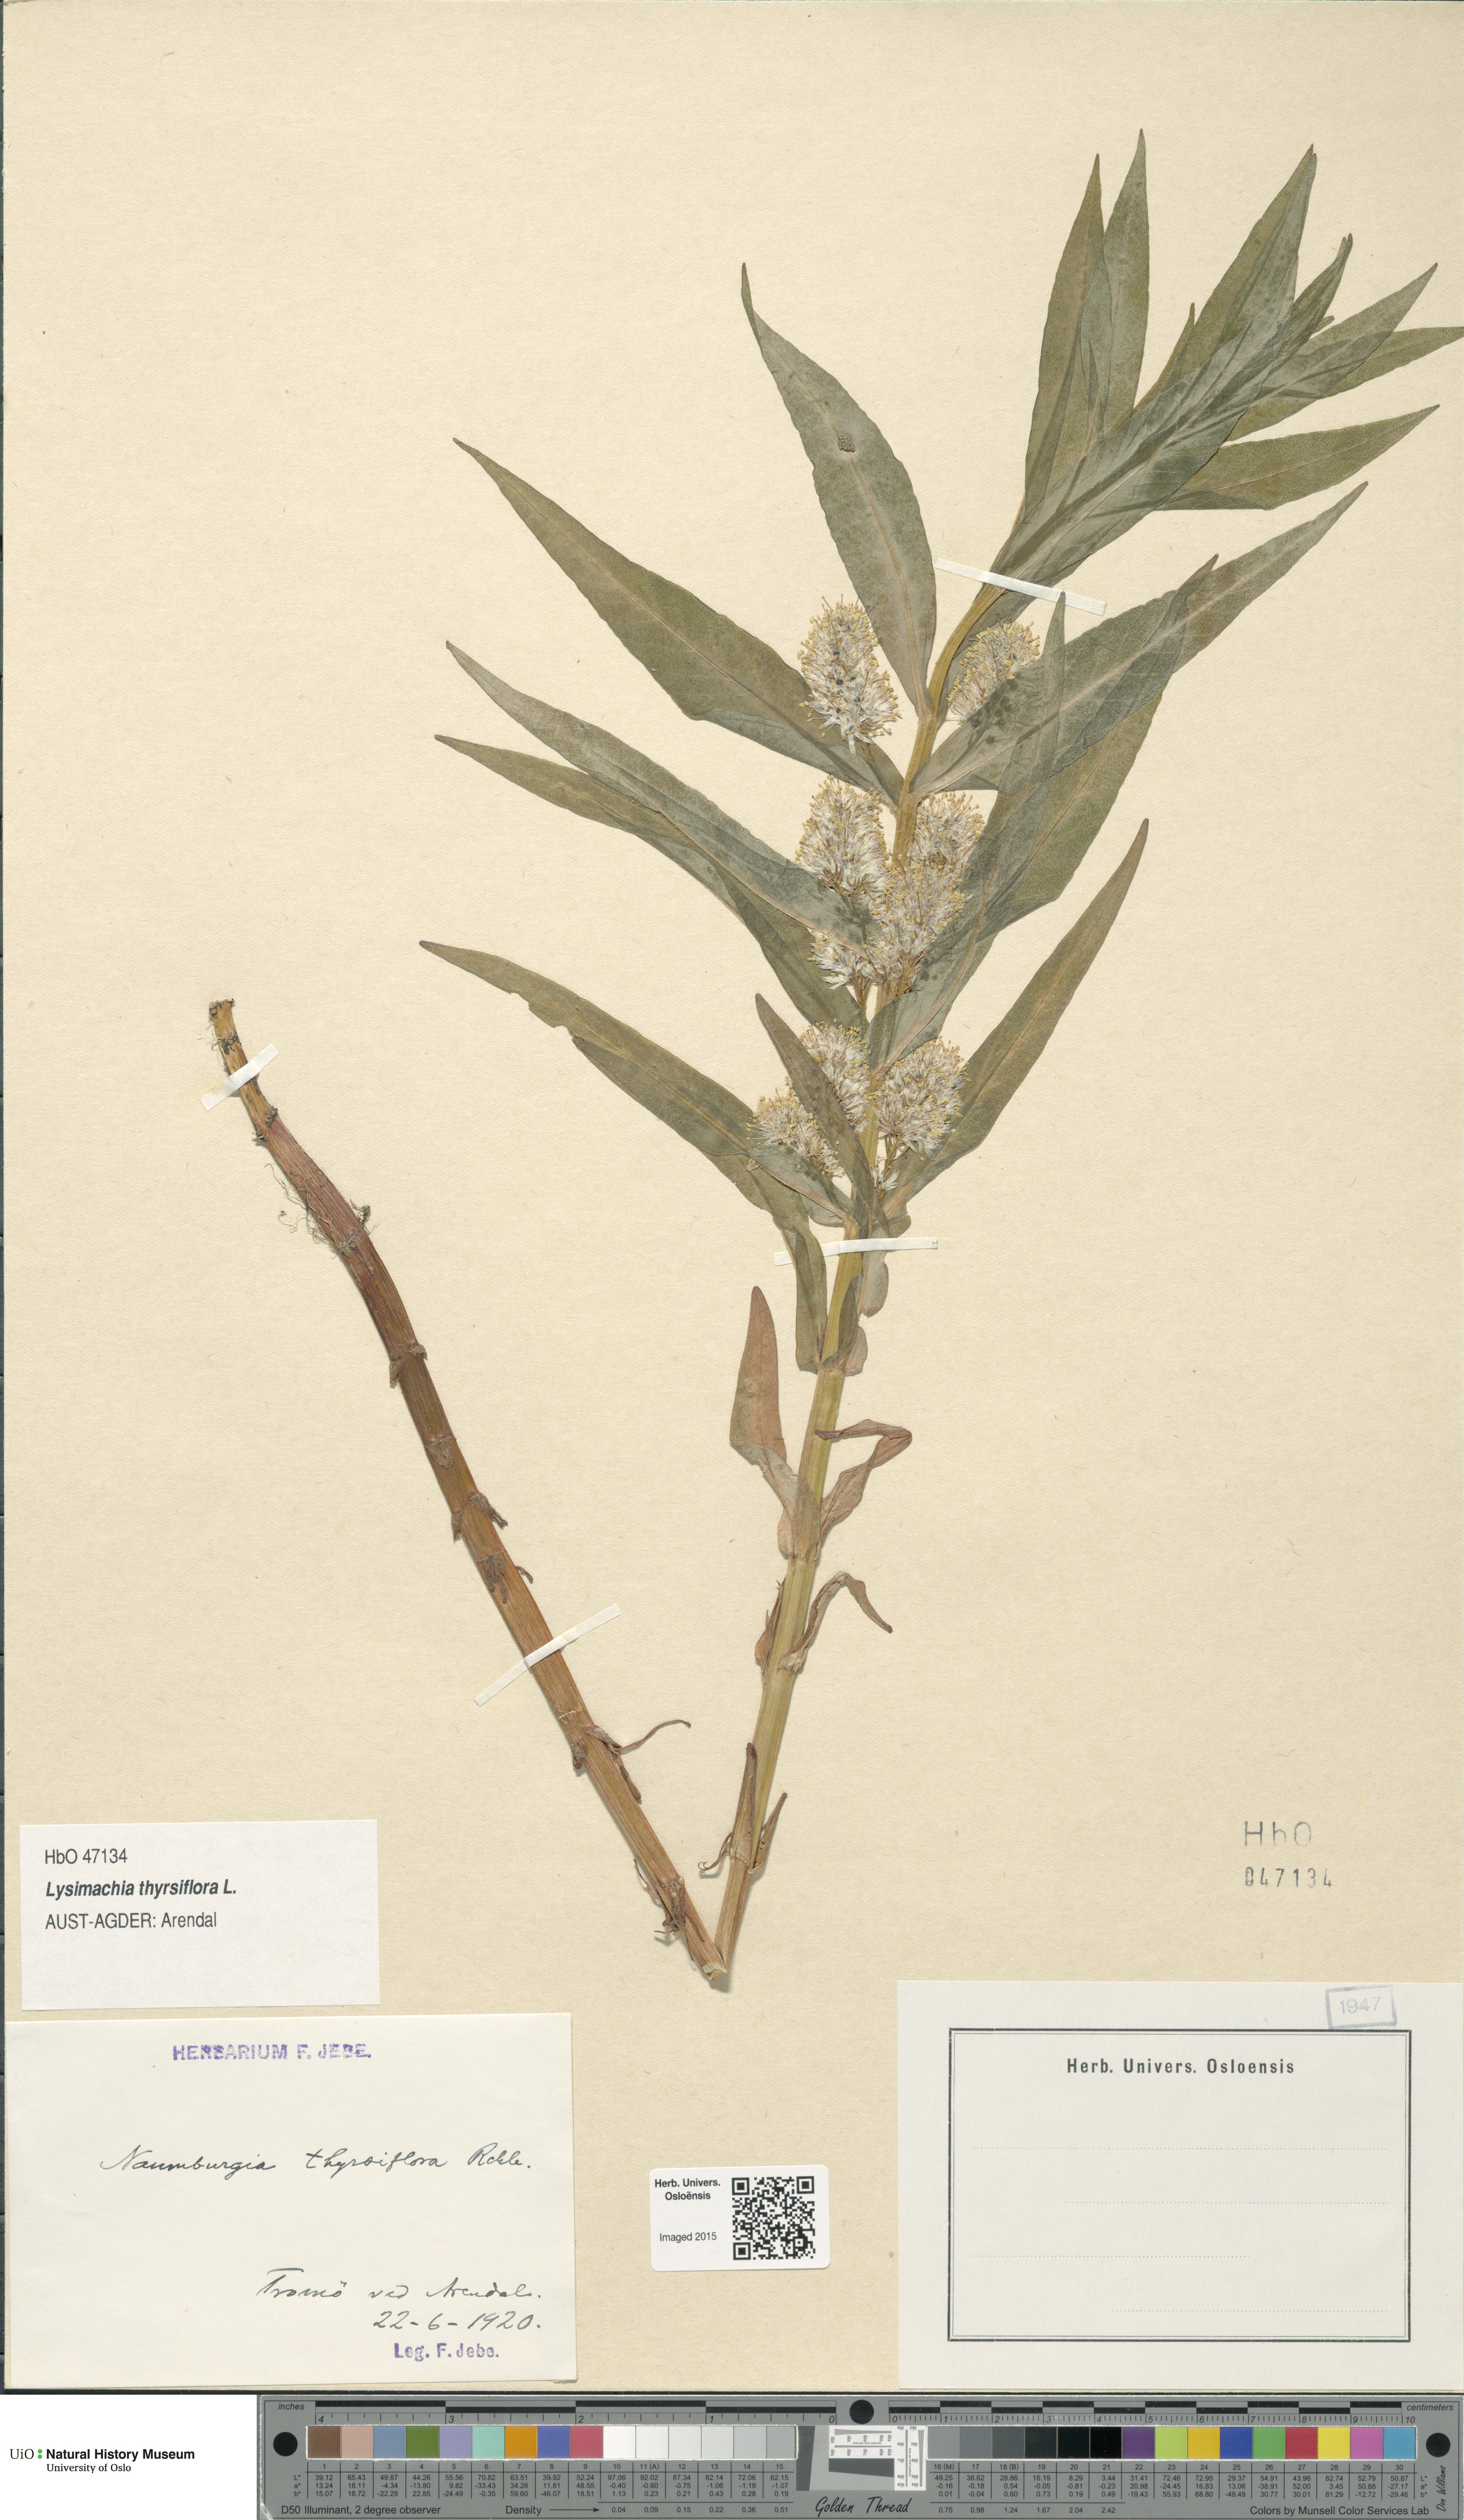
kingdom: Plantae
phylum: Tracheophyta
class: Magnoliopsida
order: Ericales
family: Primulaceae
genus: Lysimachia
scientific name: Lysimachia thyrsiflora
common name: Tufted loosestrife
